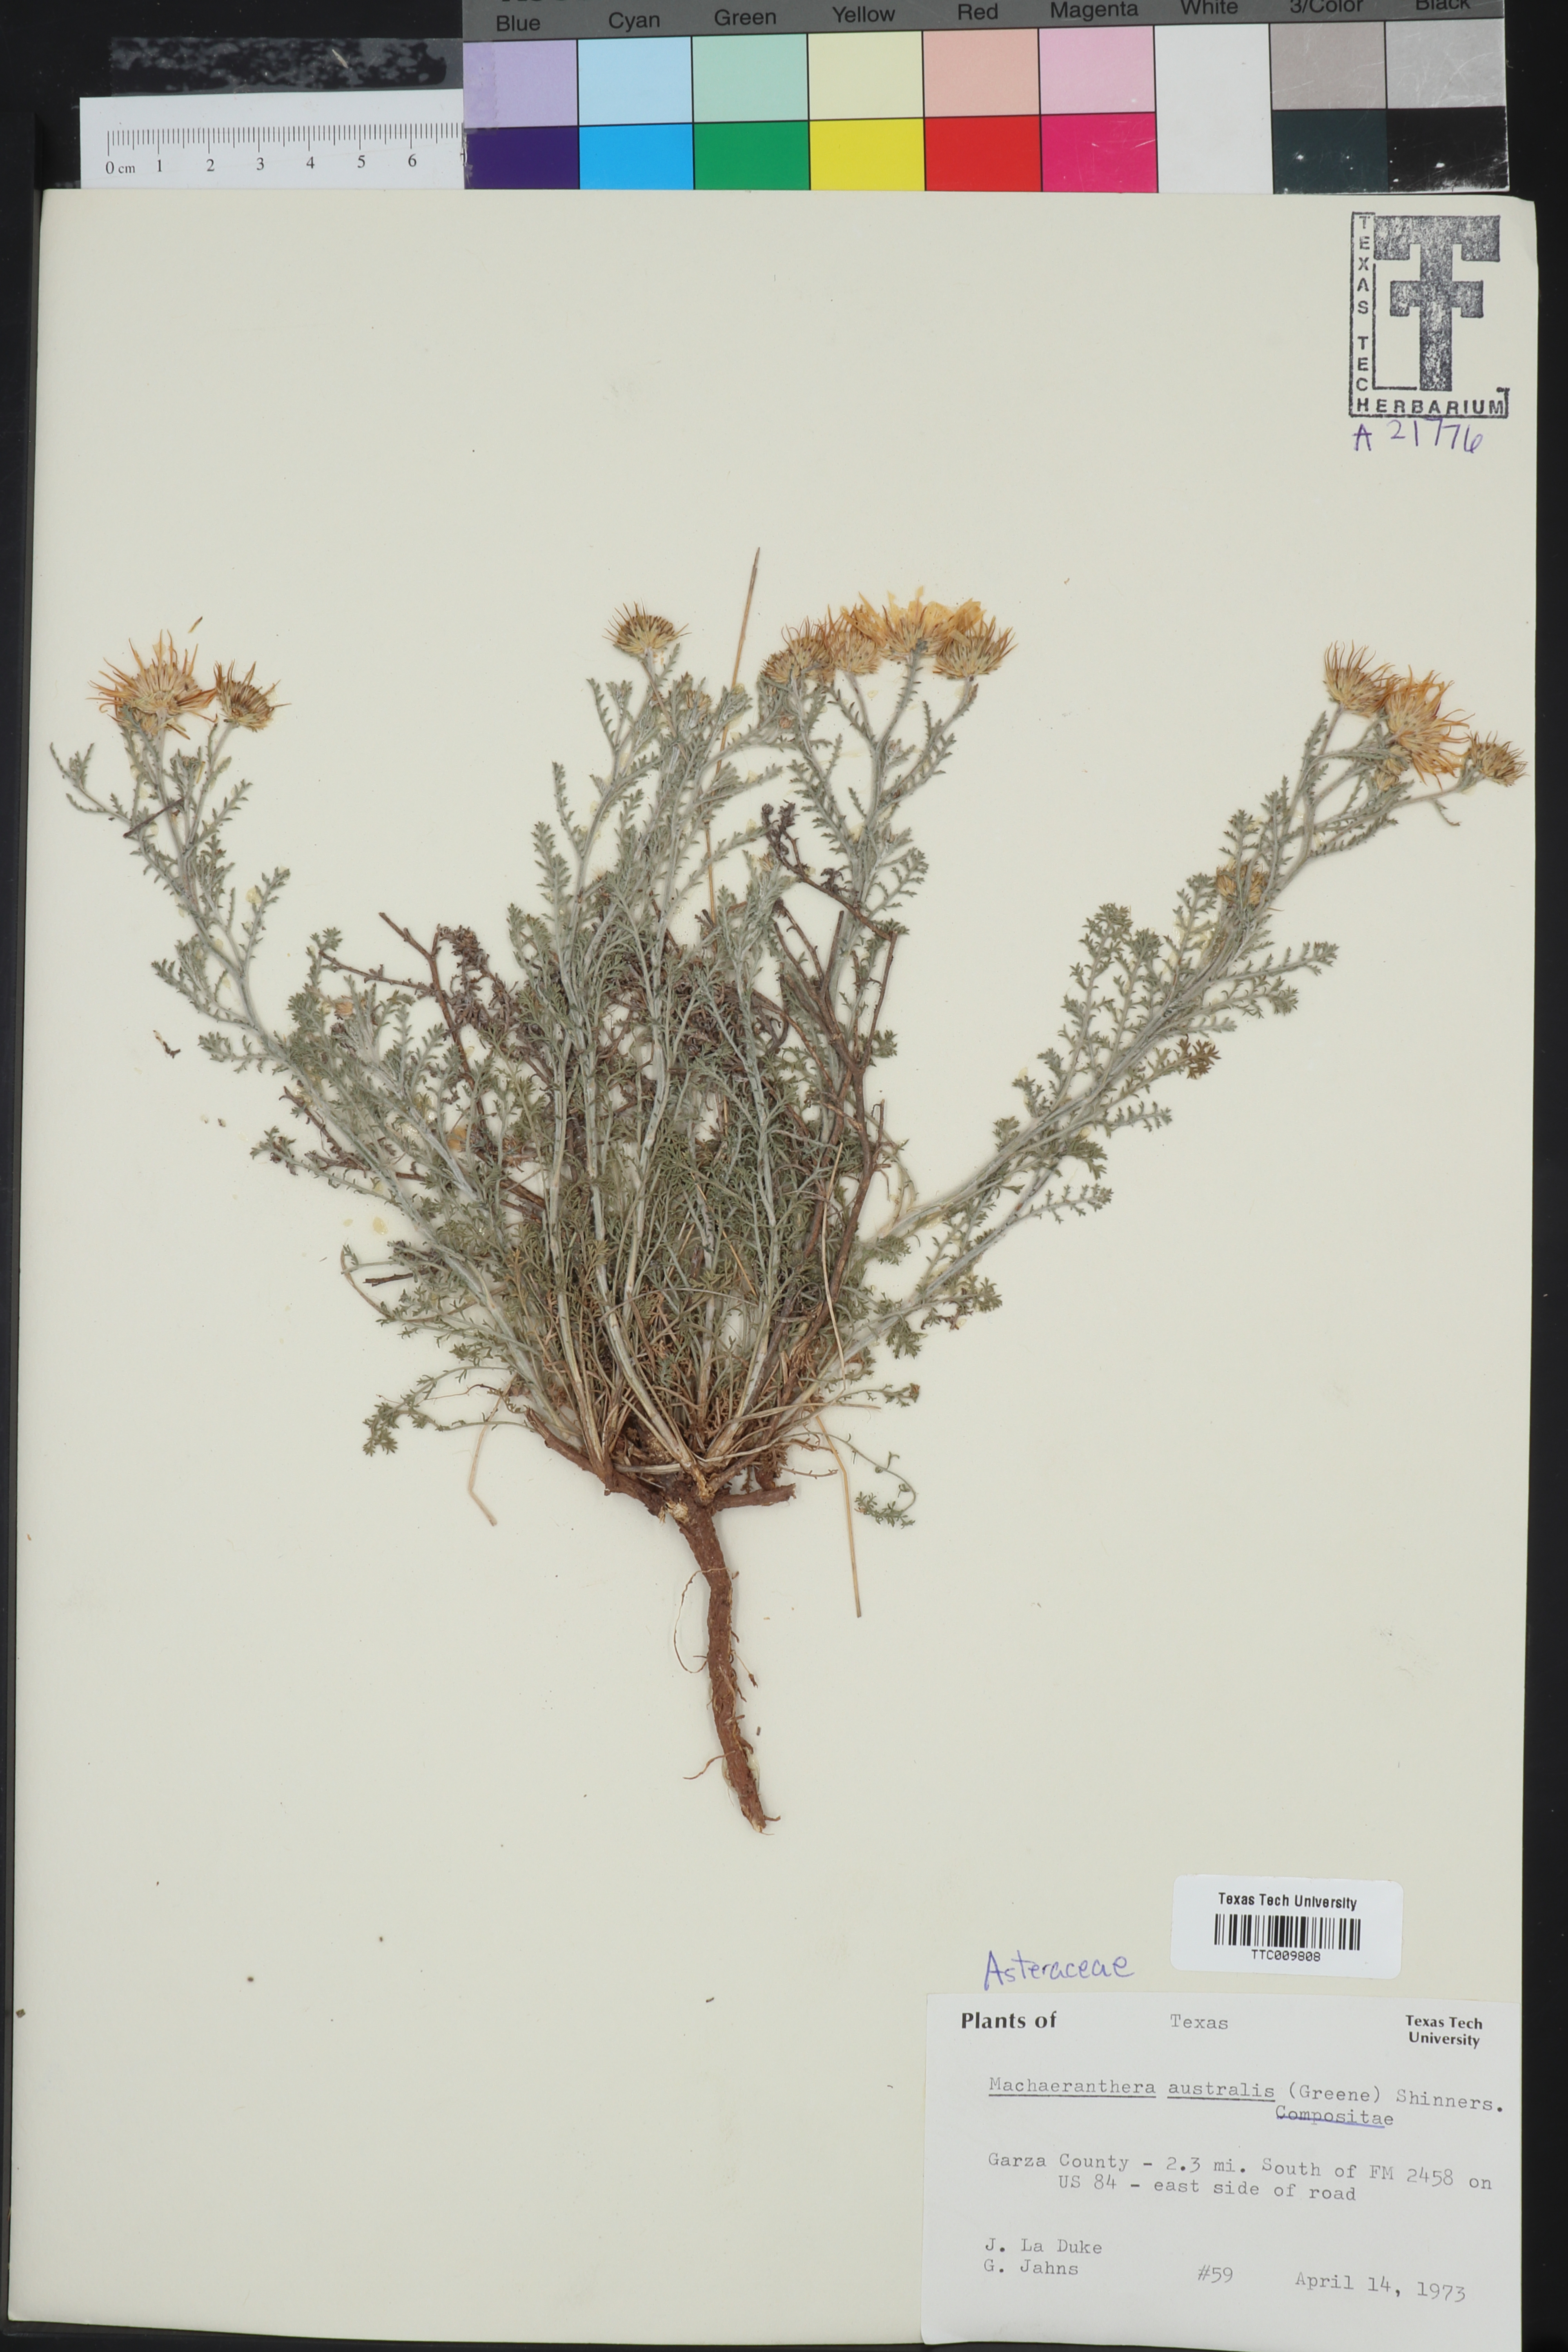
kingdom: Plantae
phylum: Tracheophyta
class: Magnoliopsida
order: Asterales
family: Asteraceae
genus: Xanthisma
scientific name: Xanthisma spinulosum
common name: Spiny goldenweed
